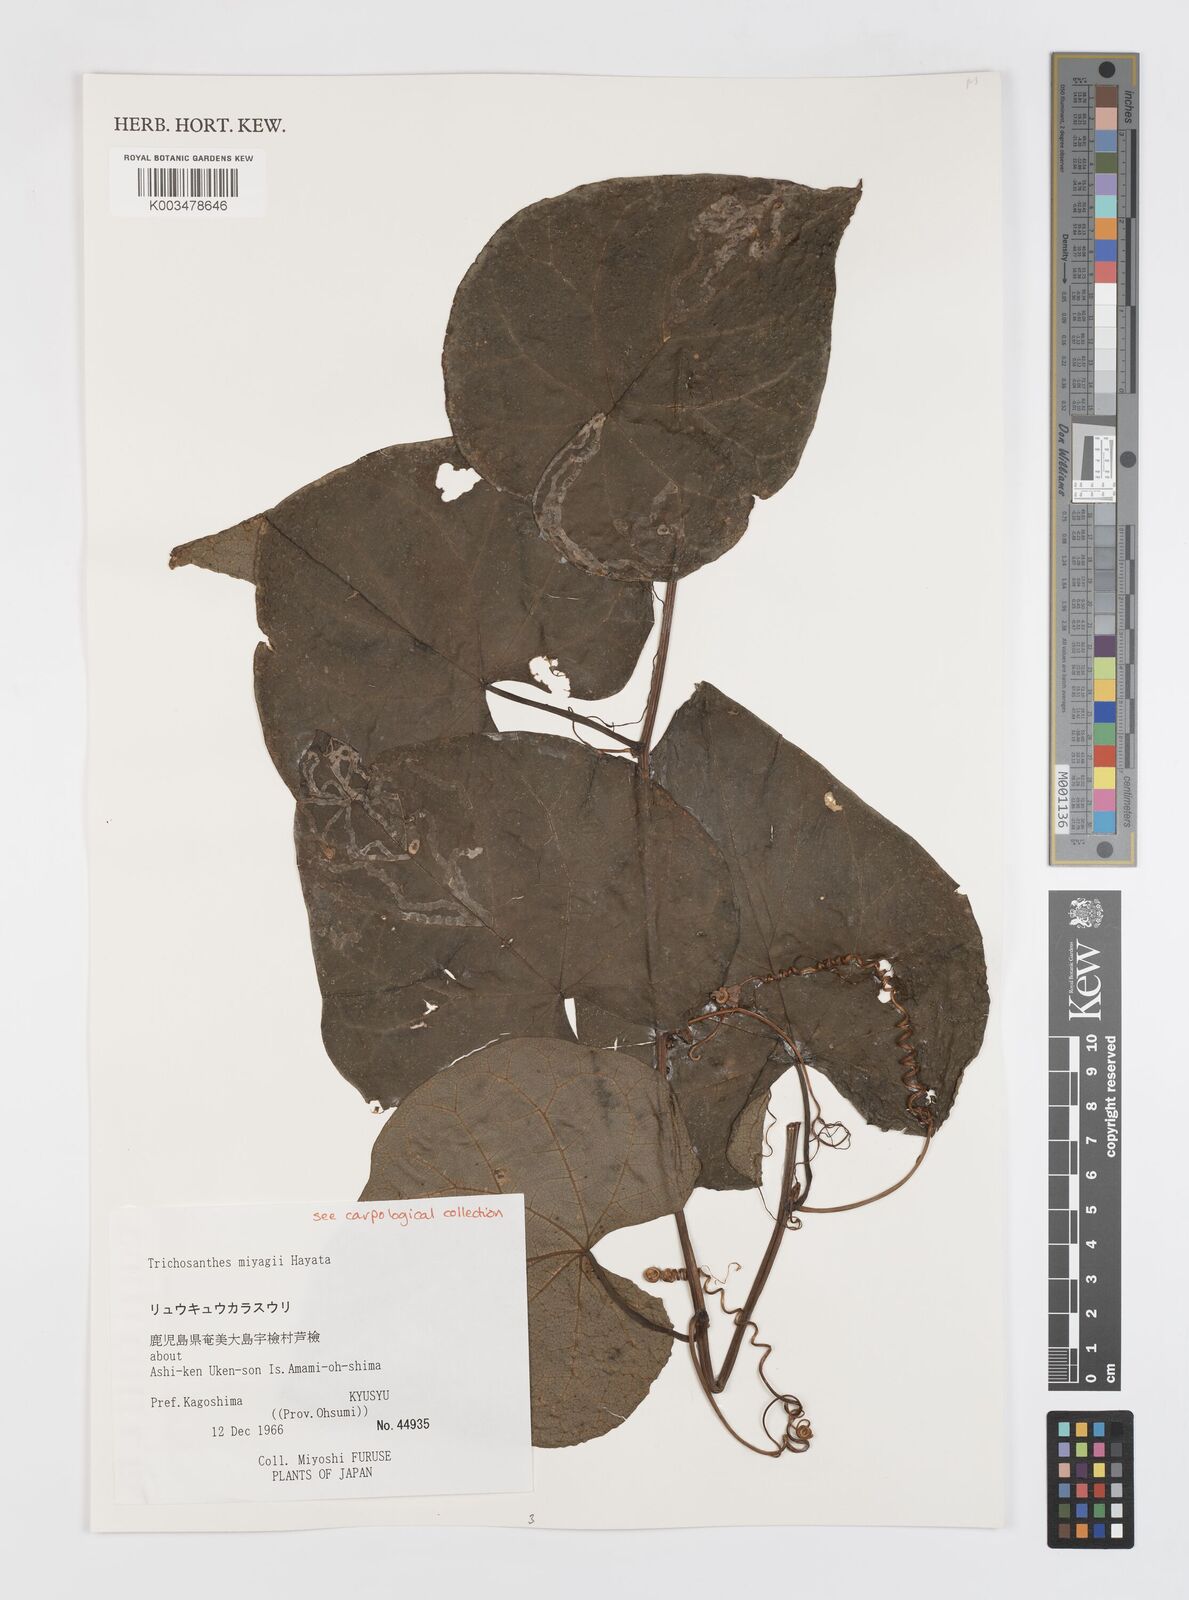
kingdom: Plantae
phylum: Tracheophyta
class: Magnoliopsida
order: Cucurbitales
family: Cucurbitaceae
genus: Trichosanthes
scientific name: Trichosanthes miyagii
